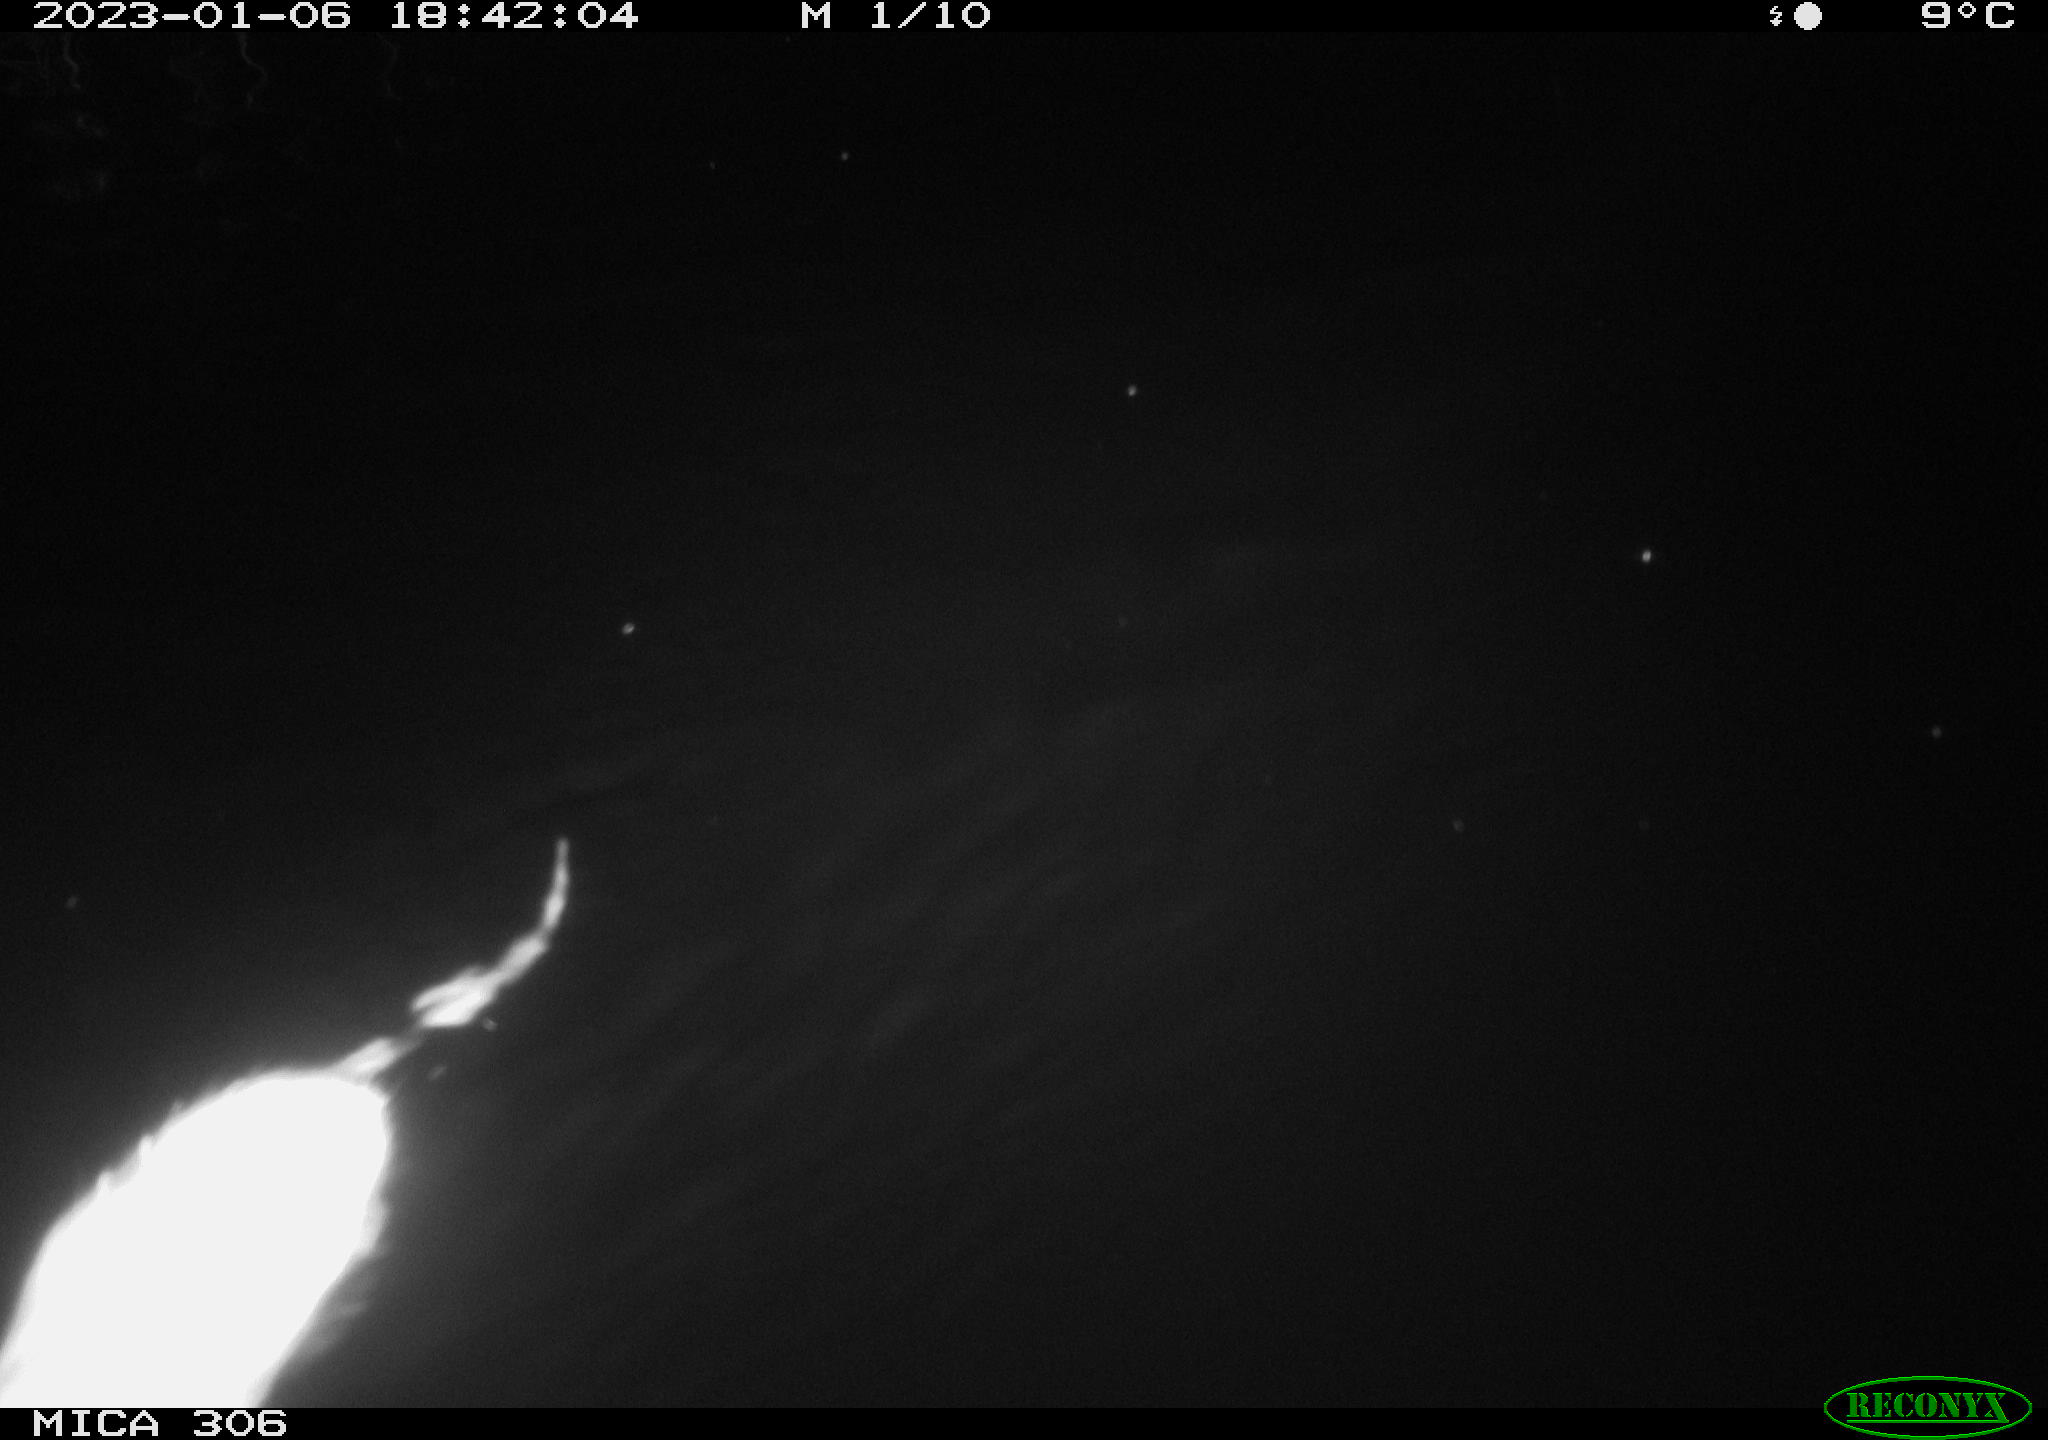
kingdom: Animalia
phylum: Chordata
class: Mammalia
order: Rodentia
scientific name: Rodentia
